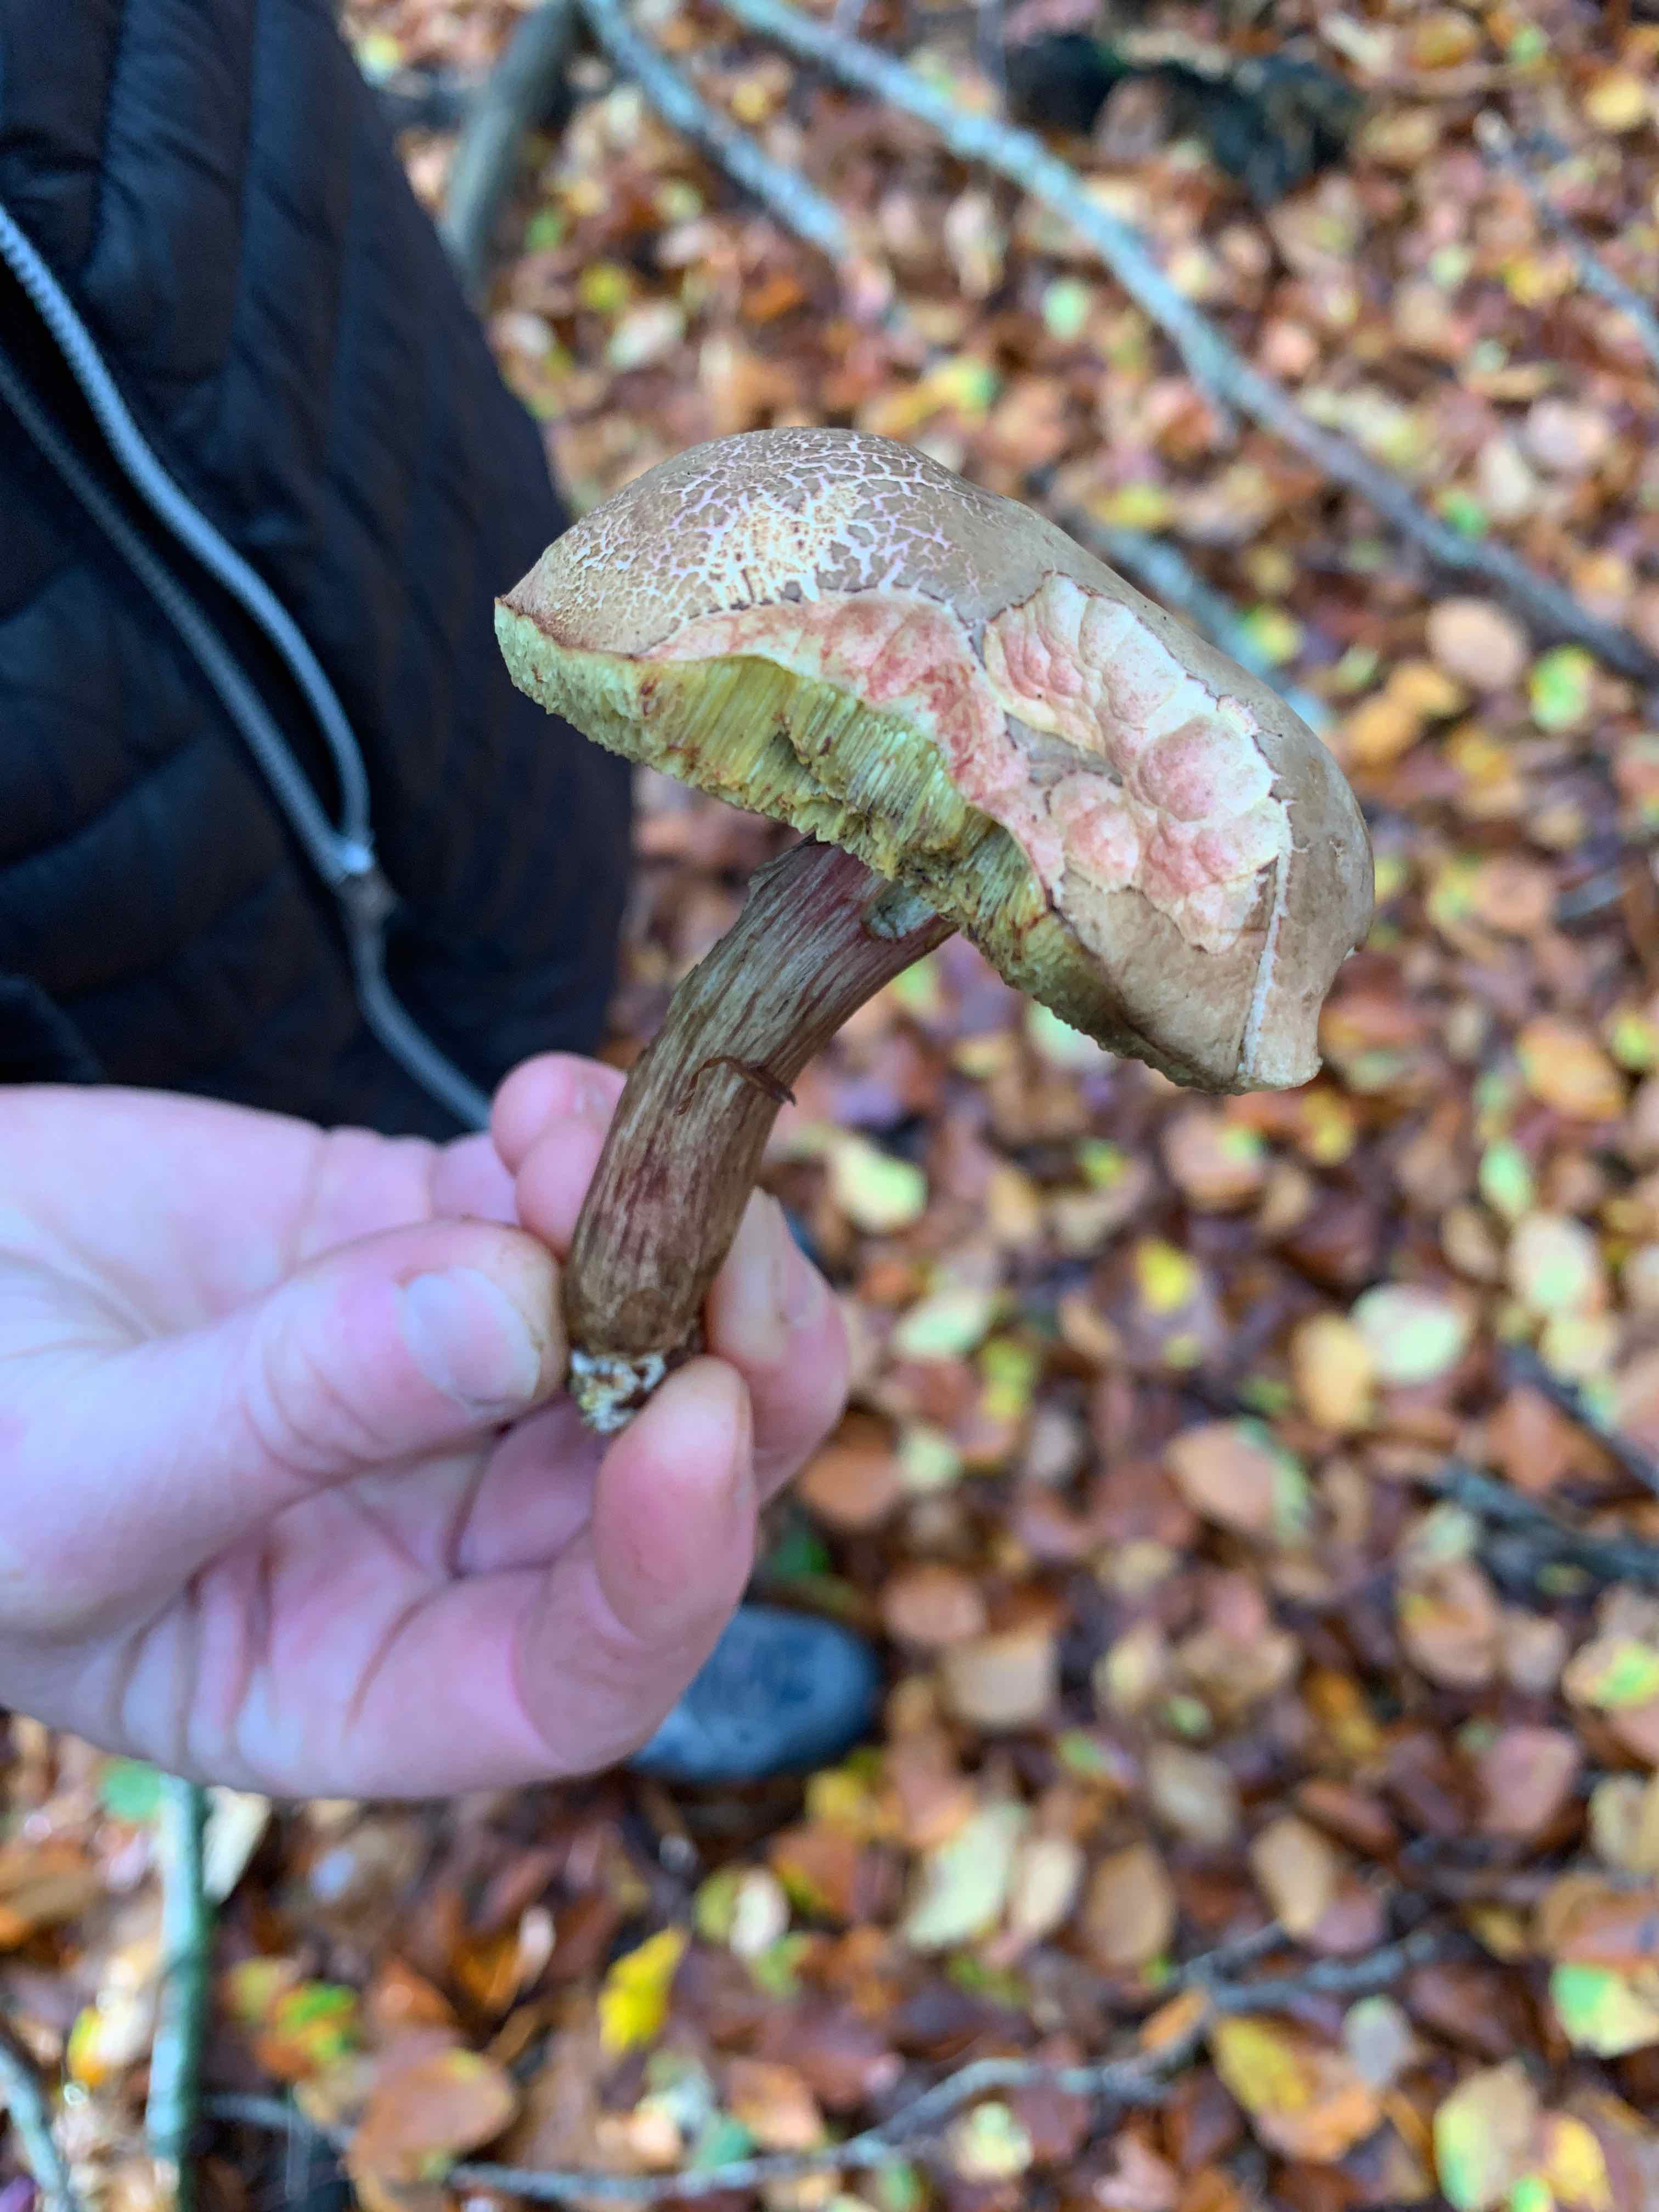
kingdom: Fungi
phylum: Basidiomycota
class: Agaricomycetes
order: Boletales
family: Boletaceae
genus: Xerocomellus
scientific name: Xerocomellus
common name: dværgrørhat
